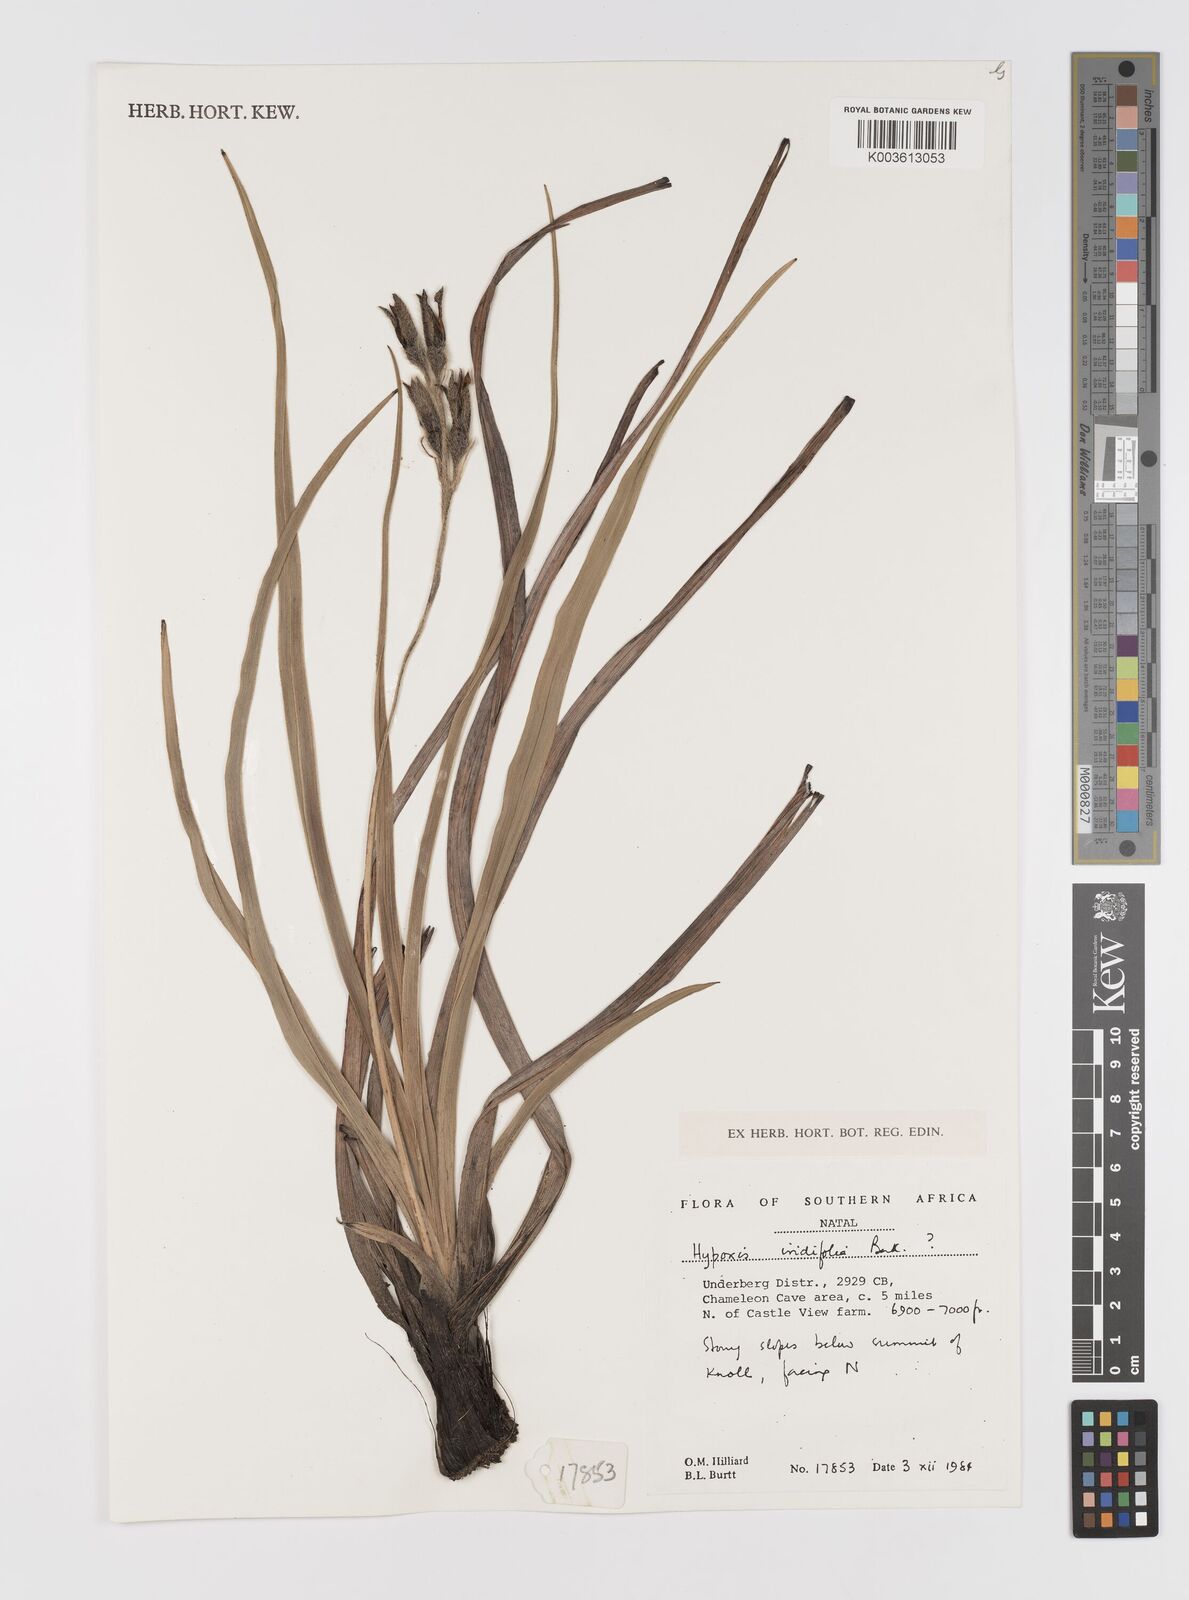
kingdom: Plantae
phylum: Tracheophyta
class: Liliopsida
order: Asparagales
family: Hypoxidaceae
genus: Hypoxis
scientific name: Hypoxis obtusa
